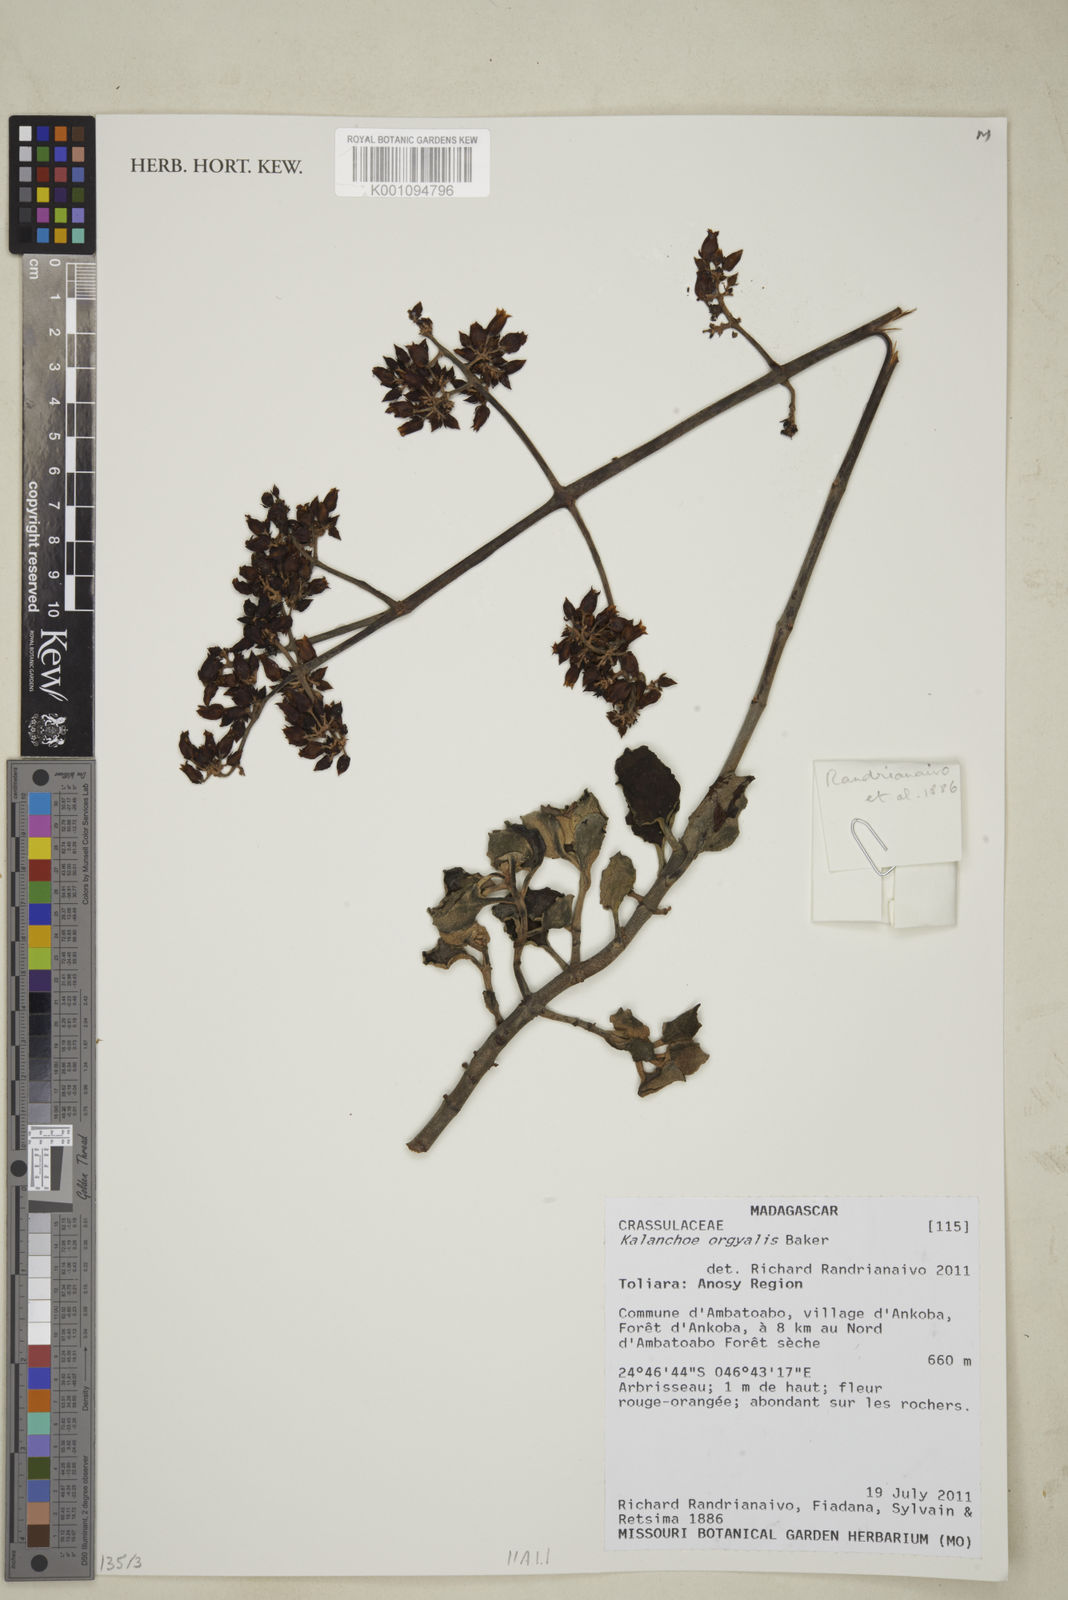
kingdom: Plantae
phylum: Tracheophyta
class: Magnoliopsida
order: Saxifragales
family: Crassulaceae
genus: Kalanchoe
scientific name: Kalanchoe
